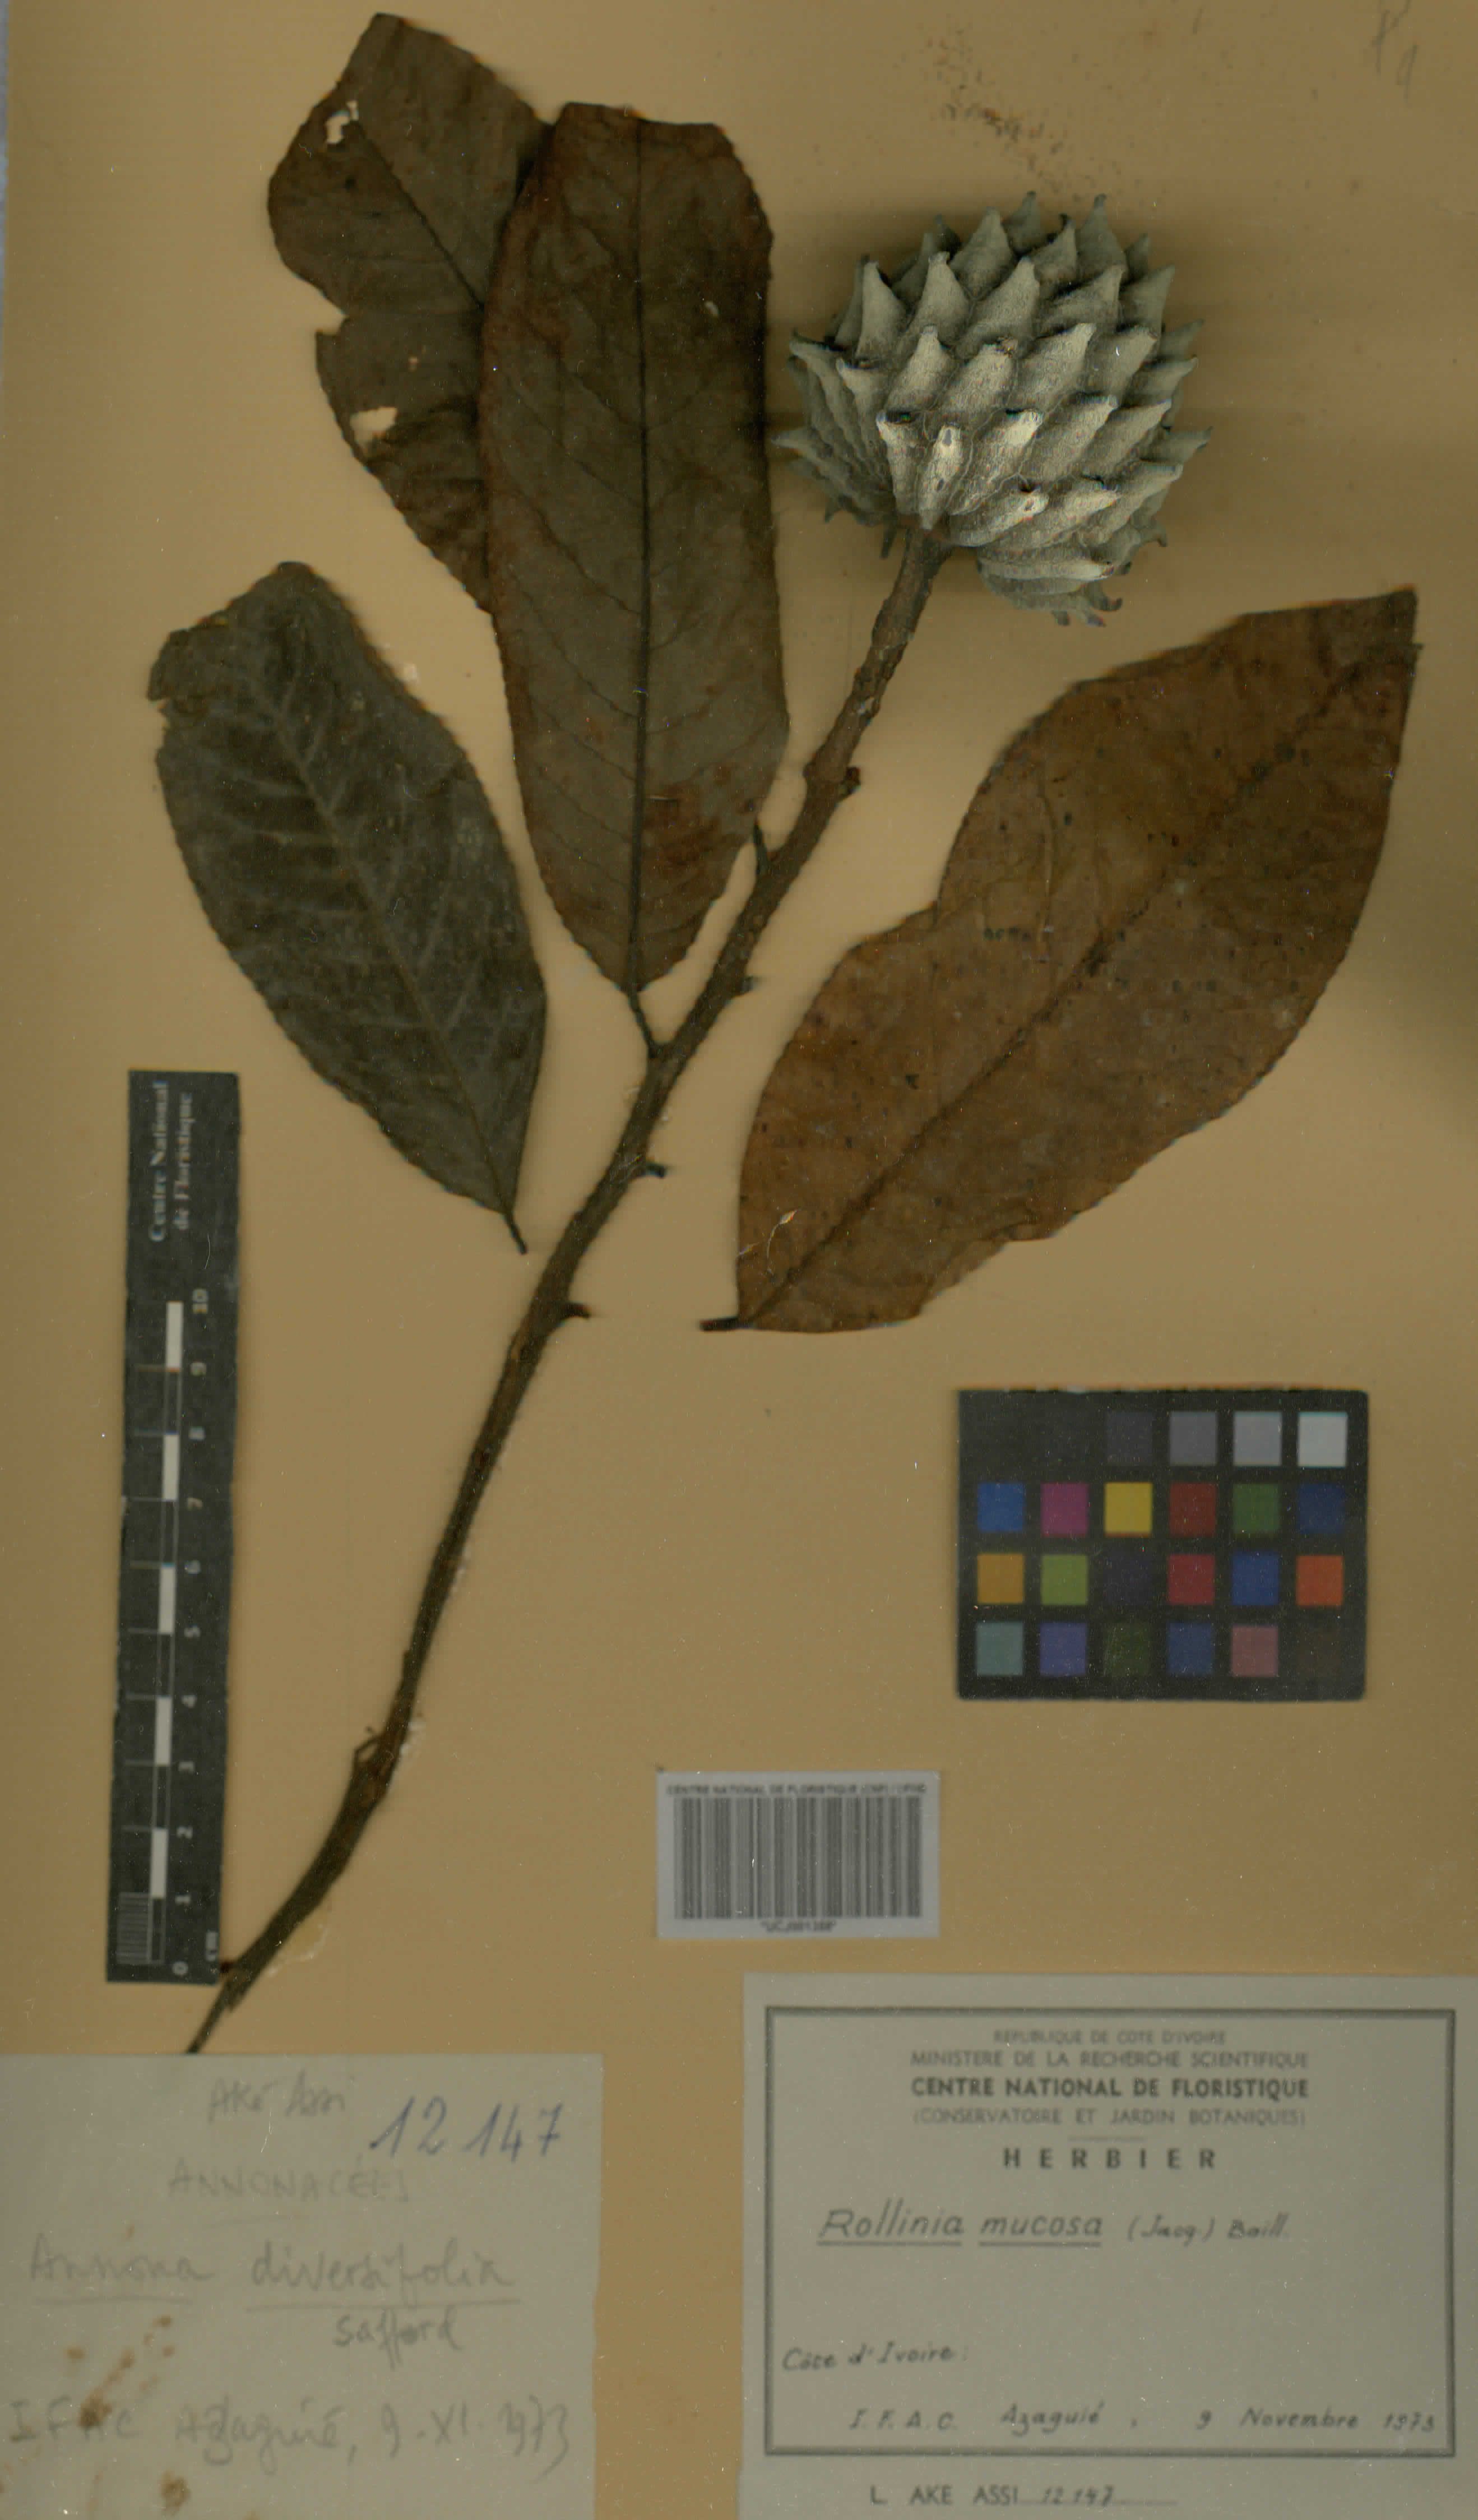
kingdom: Plantae
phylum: Tracheophyta
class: Magnoliopsida
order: Magnoliales
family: Annonaceae
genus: Annona
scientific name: Annona mucosa
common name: Sugar apple
